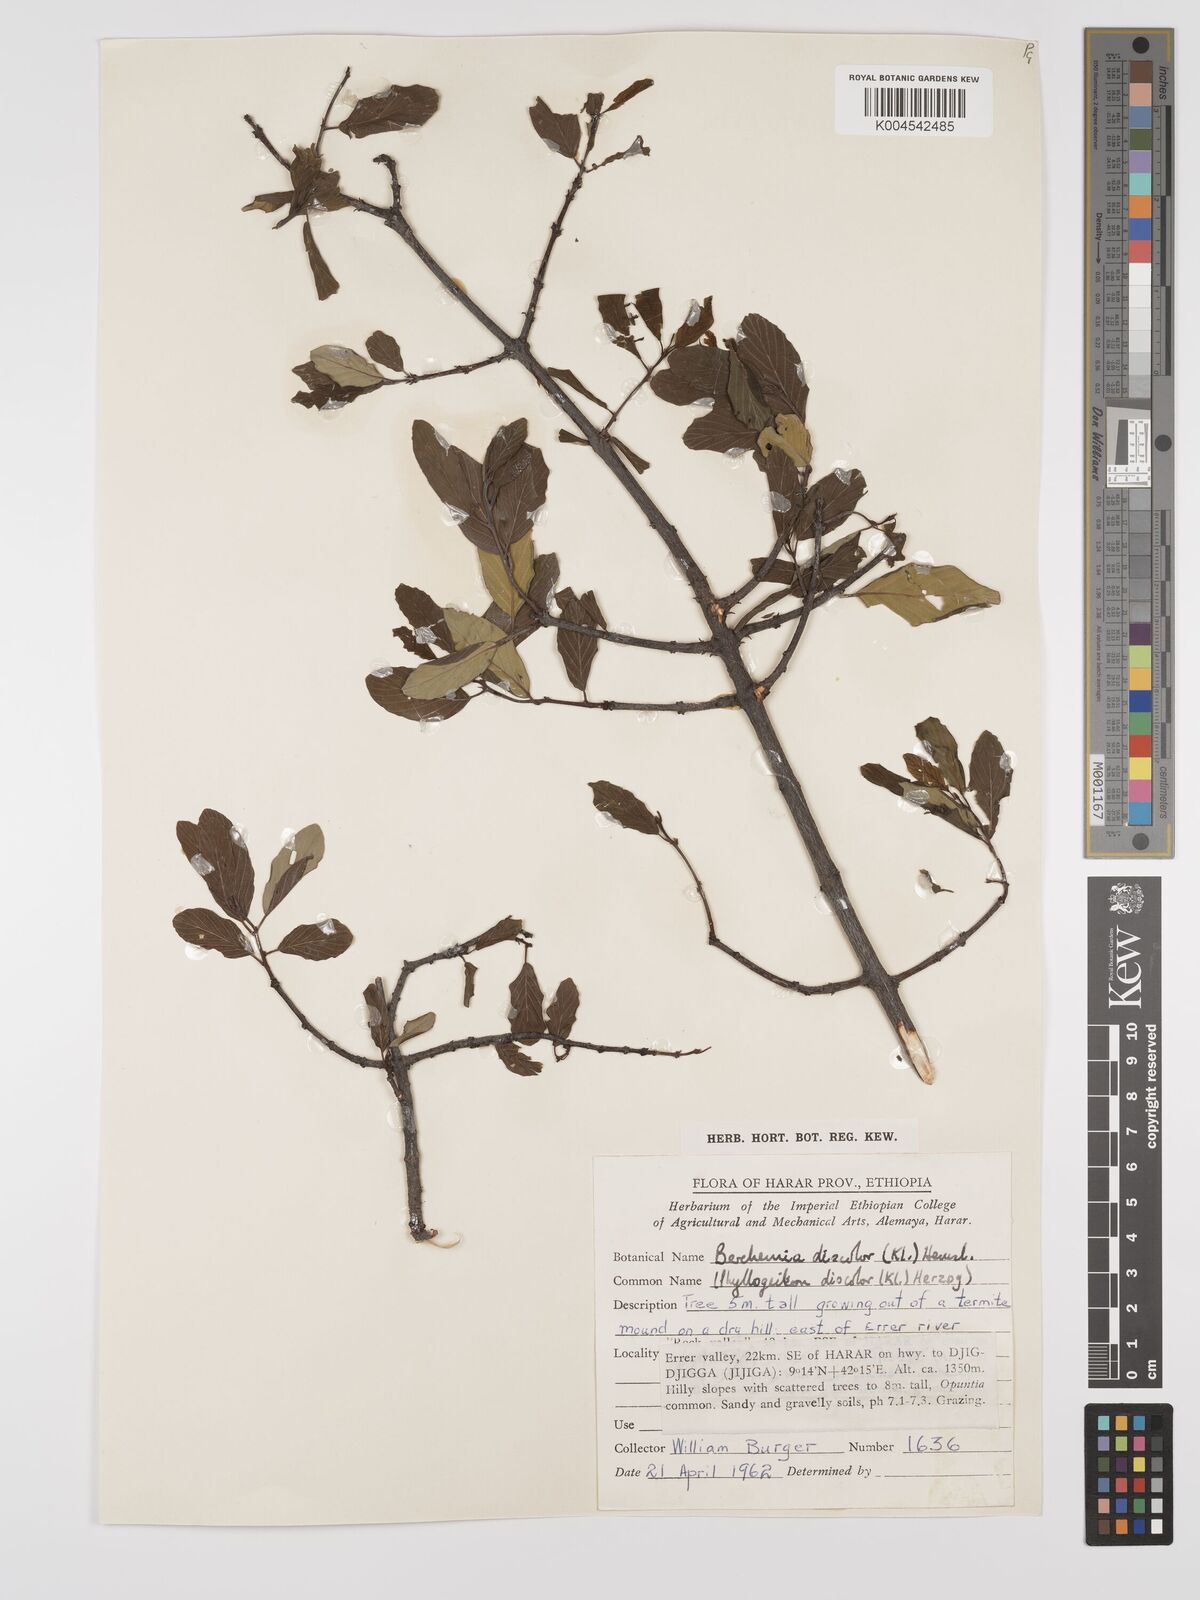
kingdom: Plantae
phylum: Tracheophyta
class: Magnoliopsida
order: Rosales
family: Rhamnaceae
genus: Phyllogeiton
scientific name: Phyllogeiton discolor
